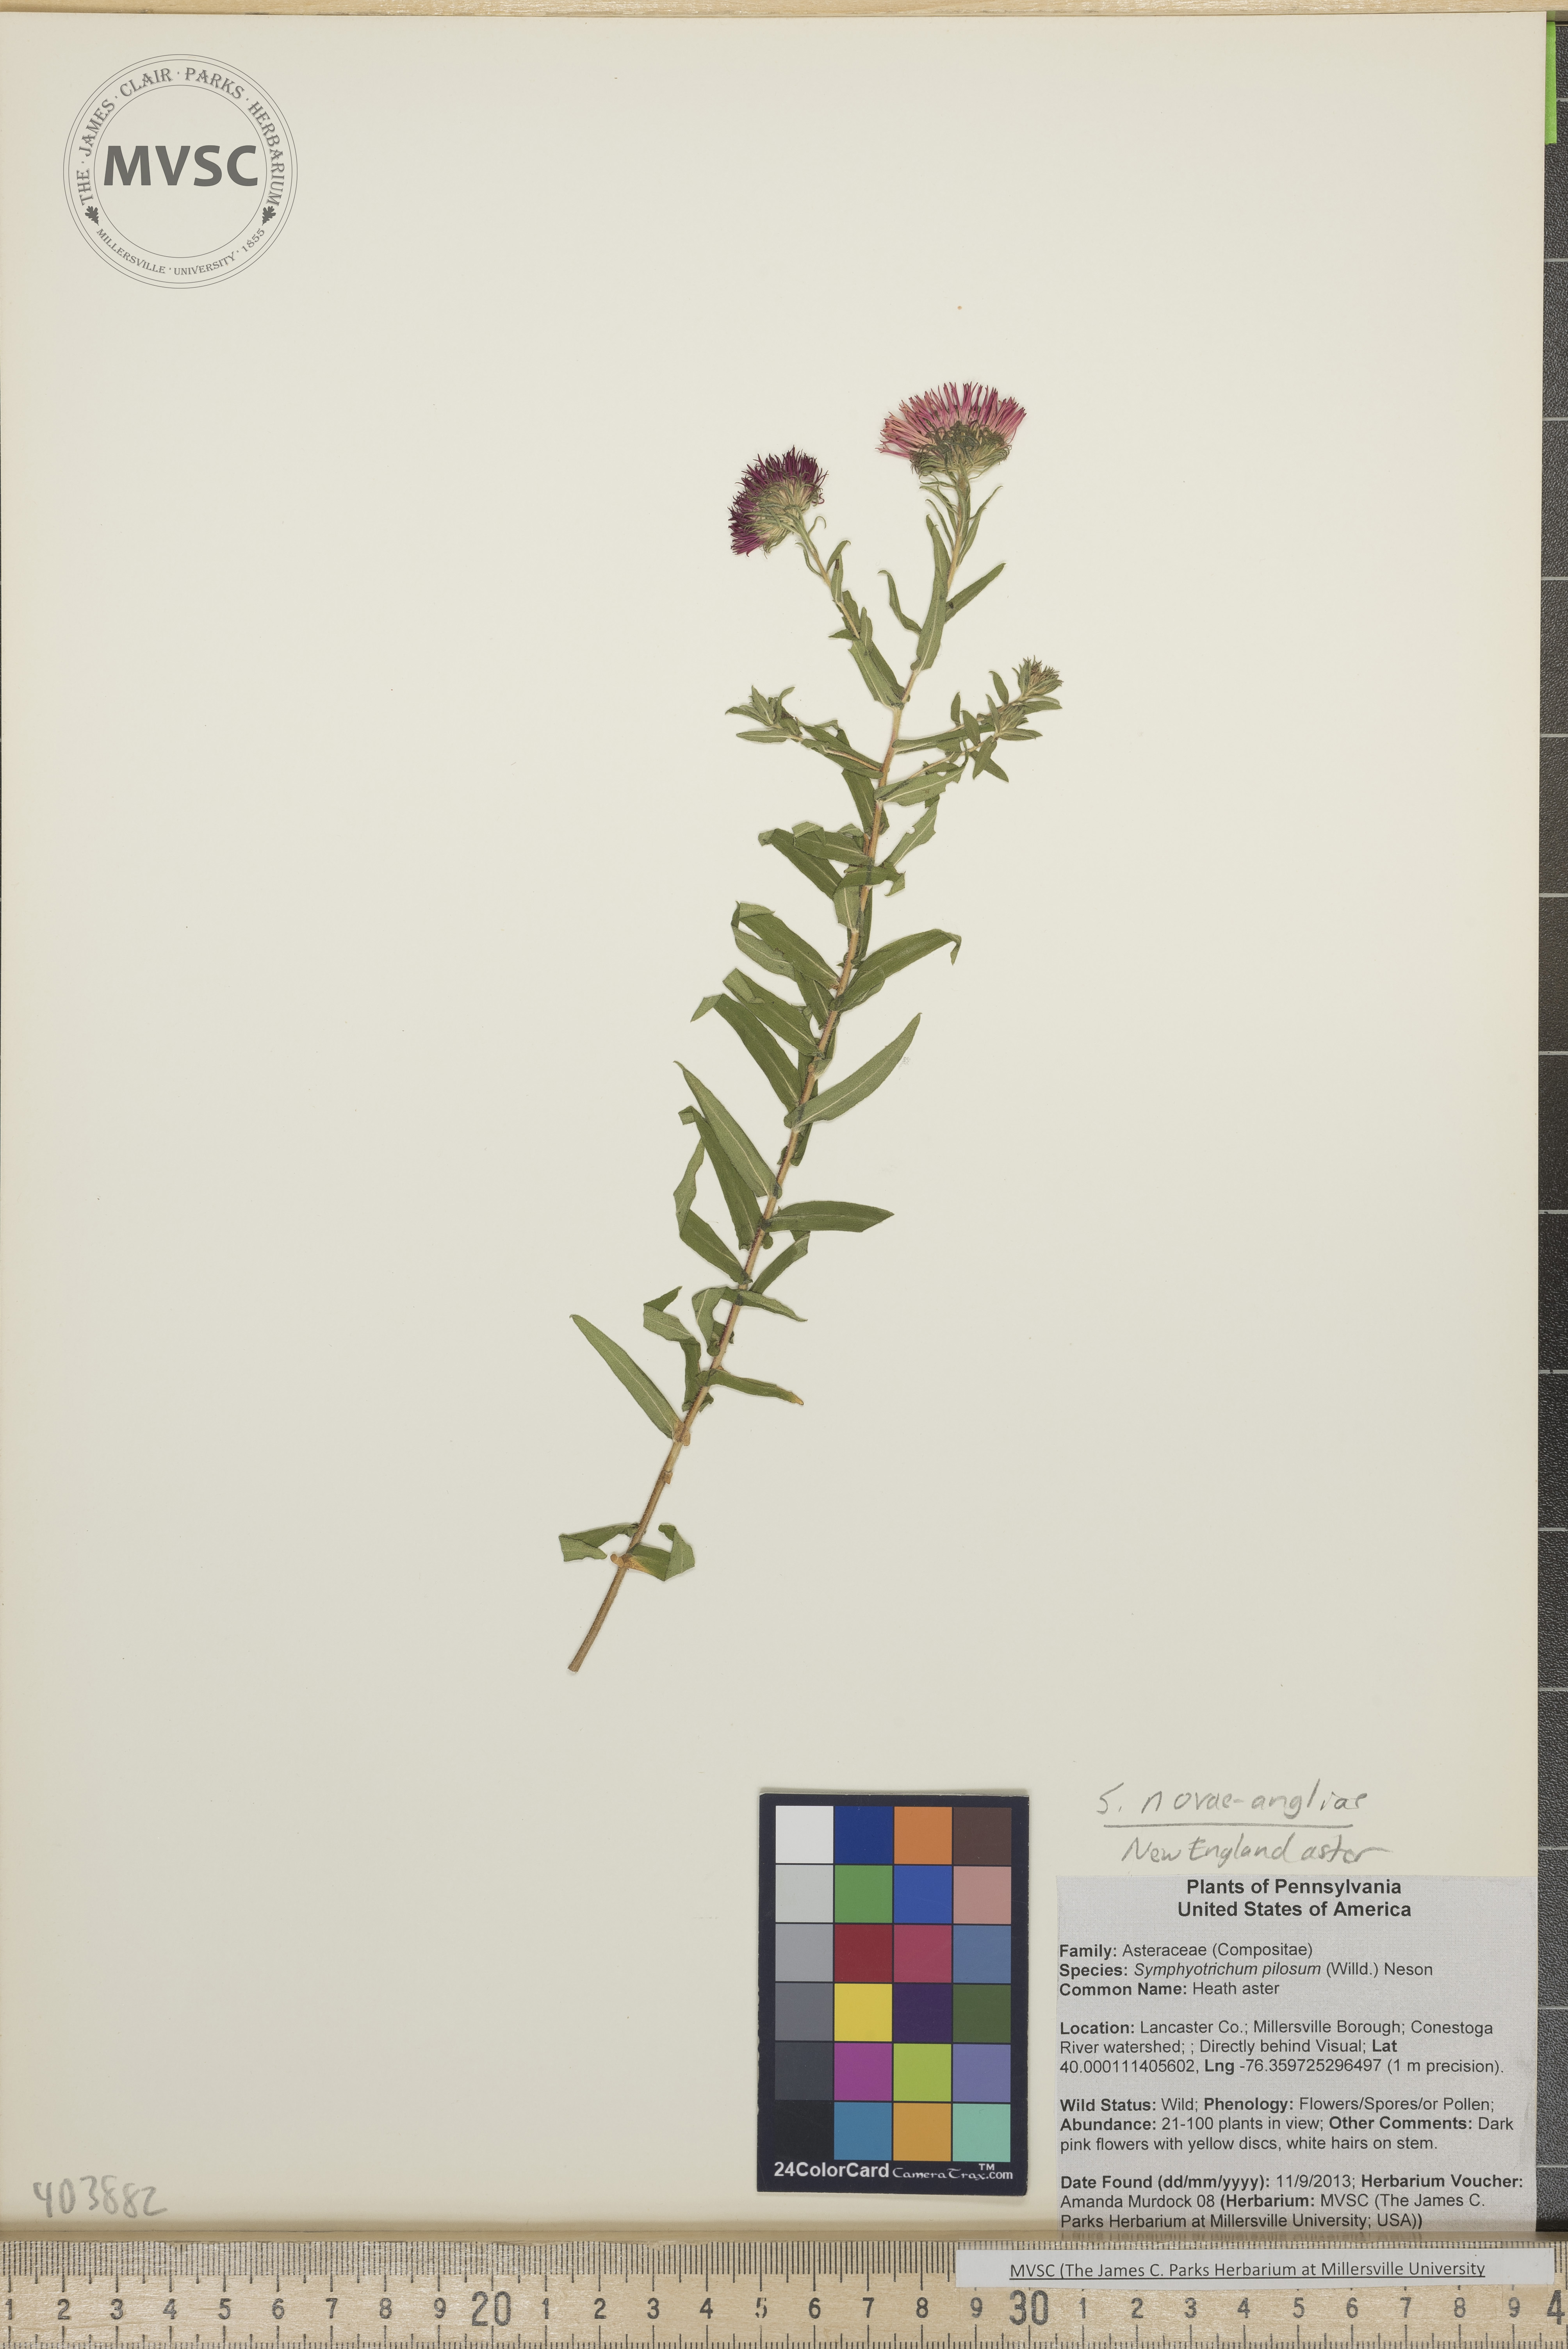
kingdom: Plantae
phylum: Tracheophyta
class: Magnoliopsida
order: Asterales
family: Asteraceae
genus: Symphyotrichum
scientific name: Symphyotrichum novae-angliae
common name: New England Aster
